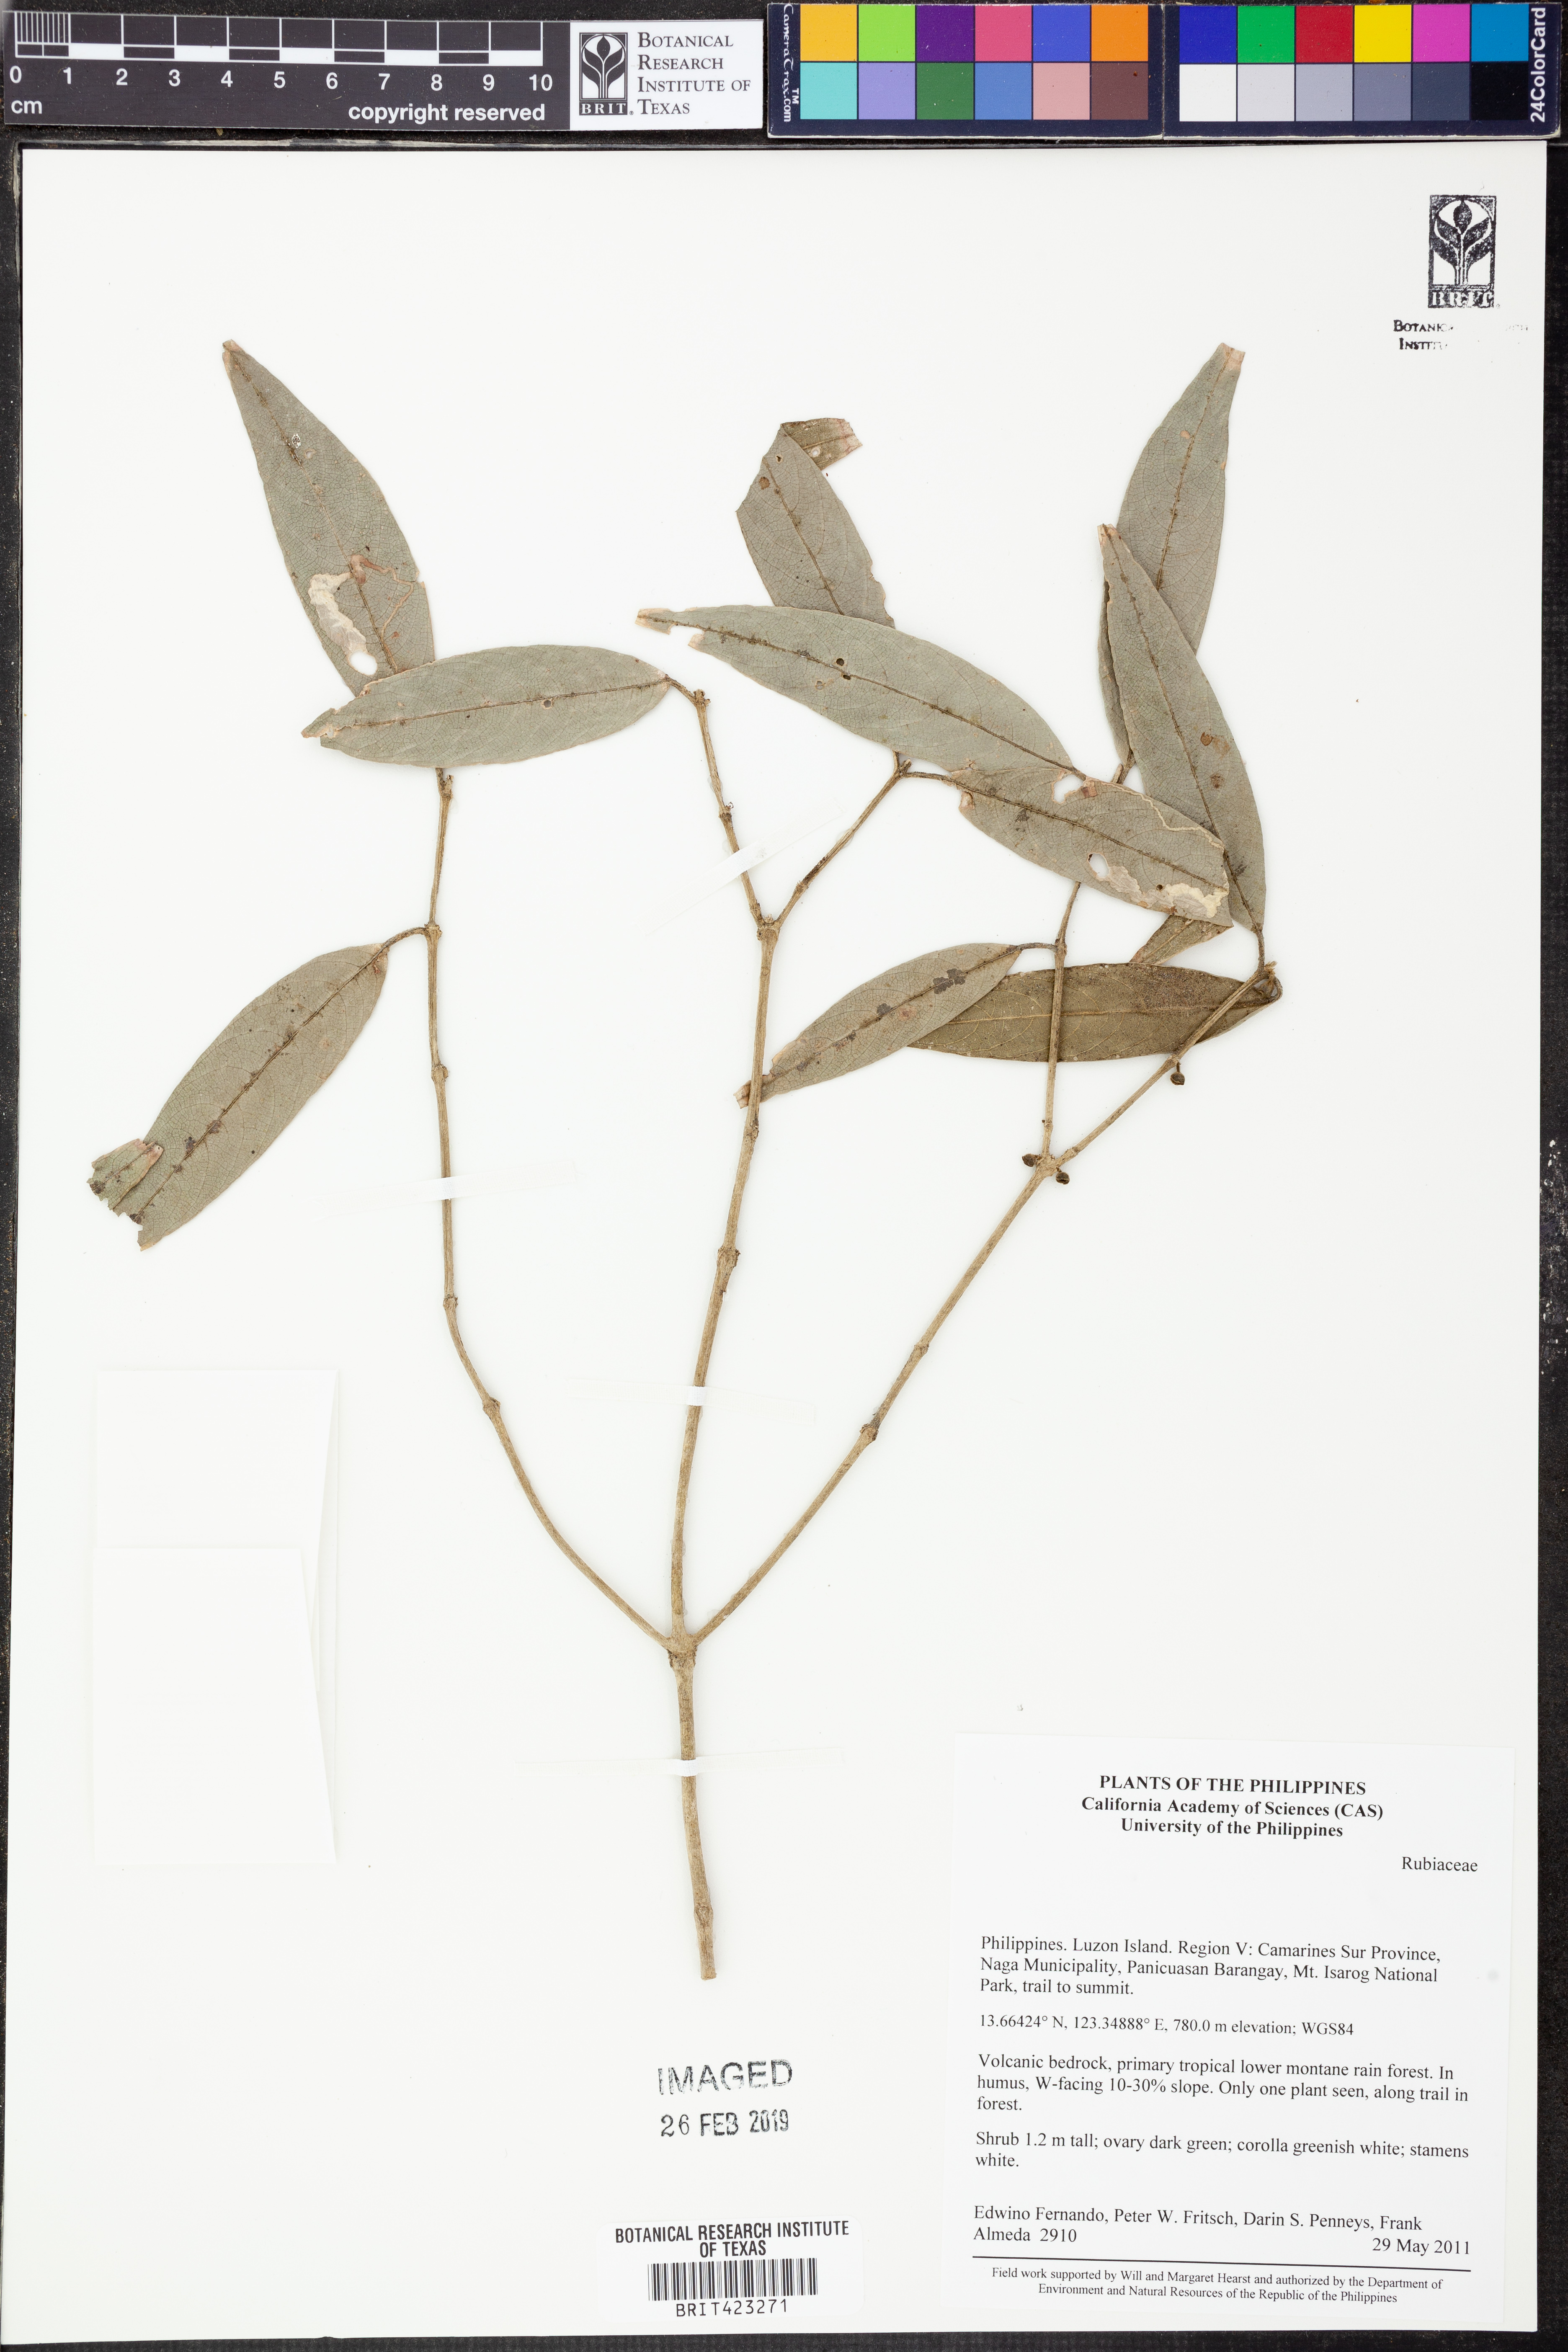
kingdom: Plantae
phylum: Tracheophyta
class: Magnoliopsida
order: Gentianales
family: Rubiaceae
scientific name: Rubiaceae
